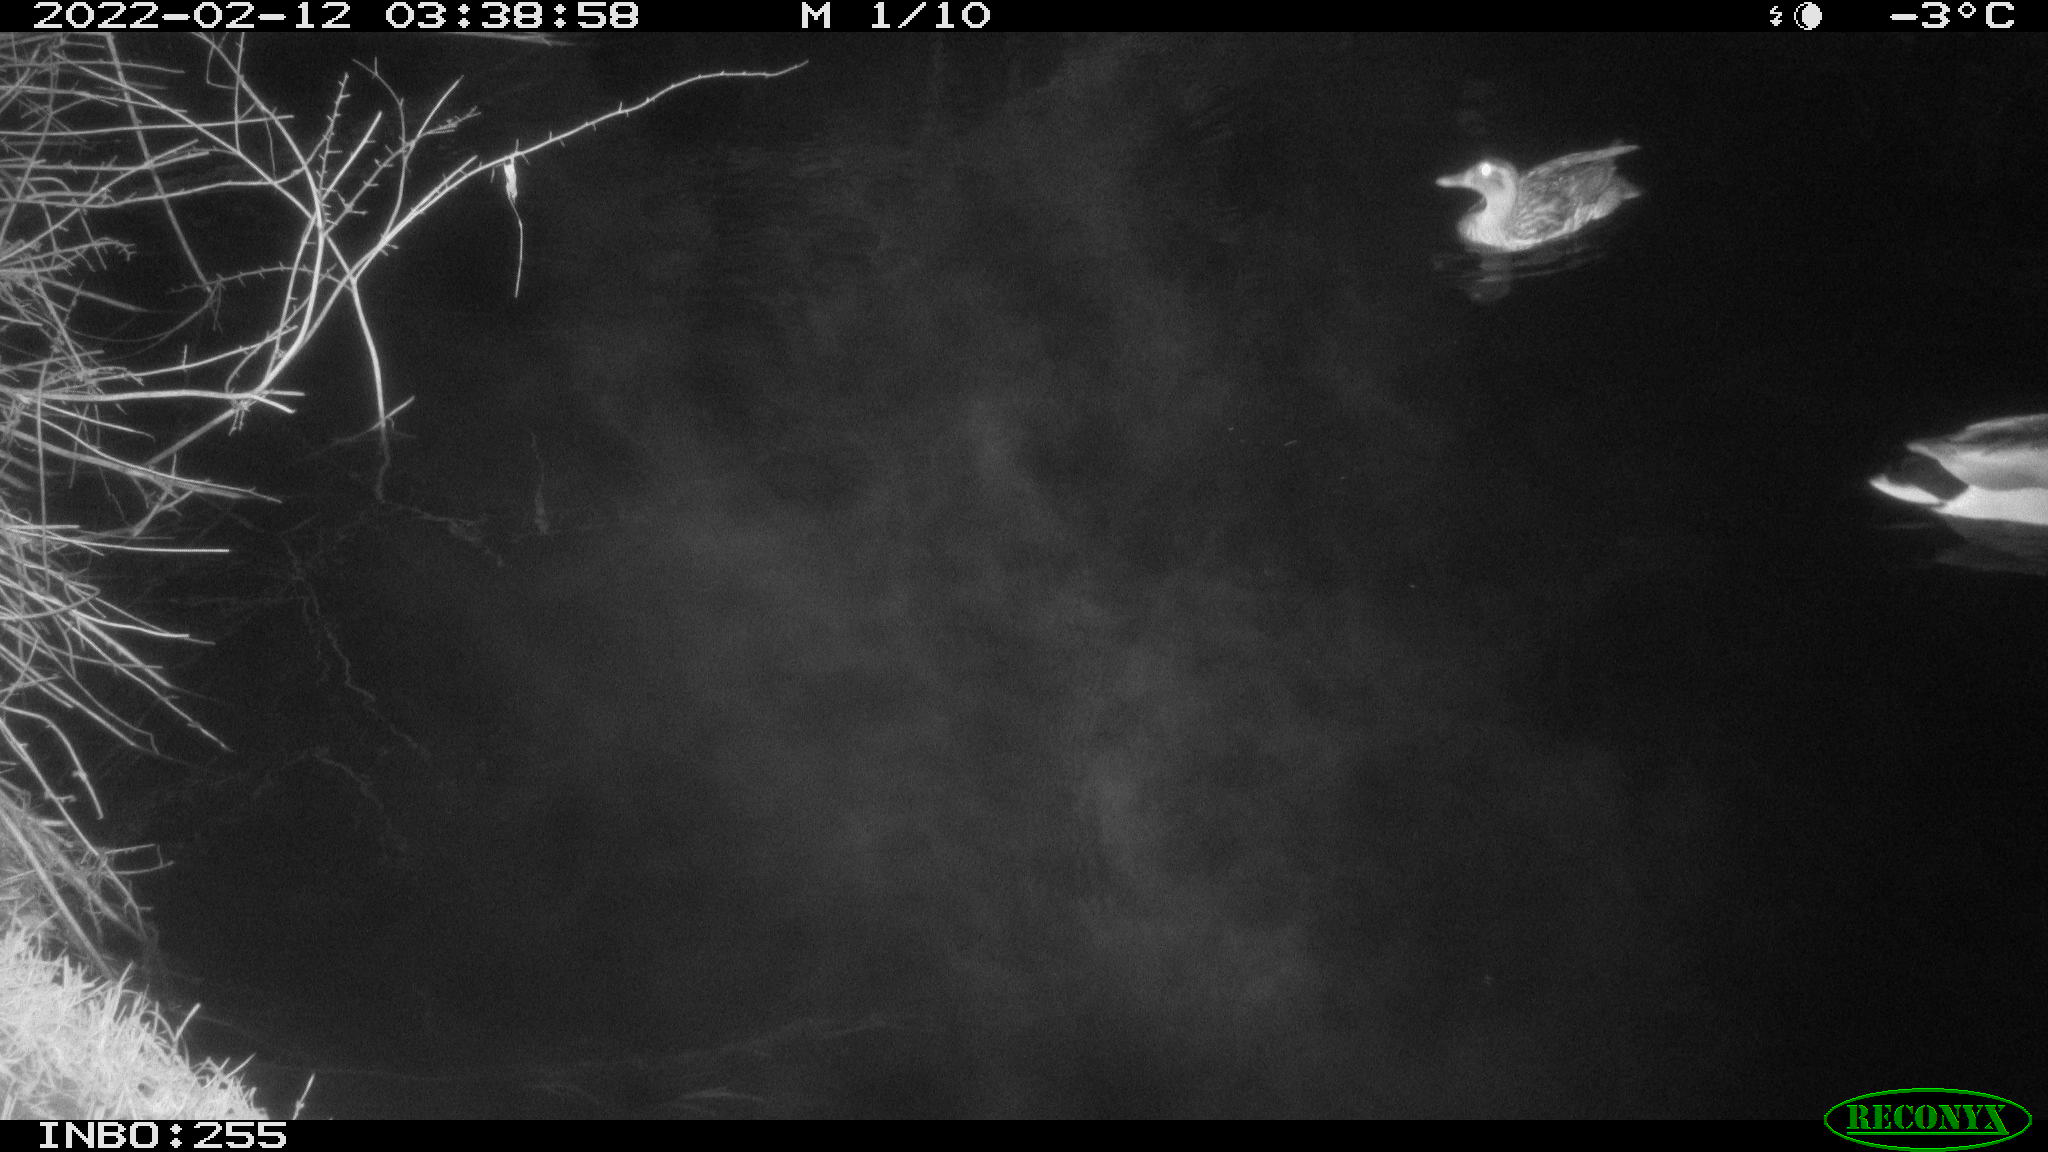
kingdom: Animalia
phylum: Chordata
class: Aves
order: Anseriformes
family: Anatidae
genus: Anas
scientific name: Anas platyrhynchos
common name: Mallard
